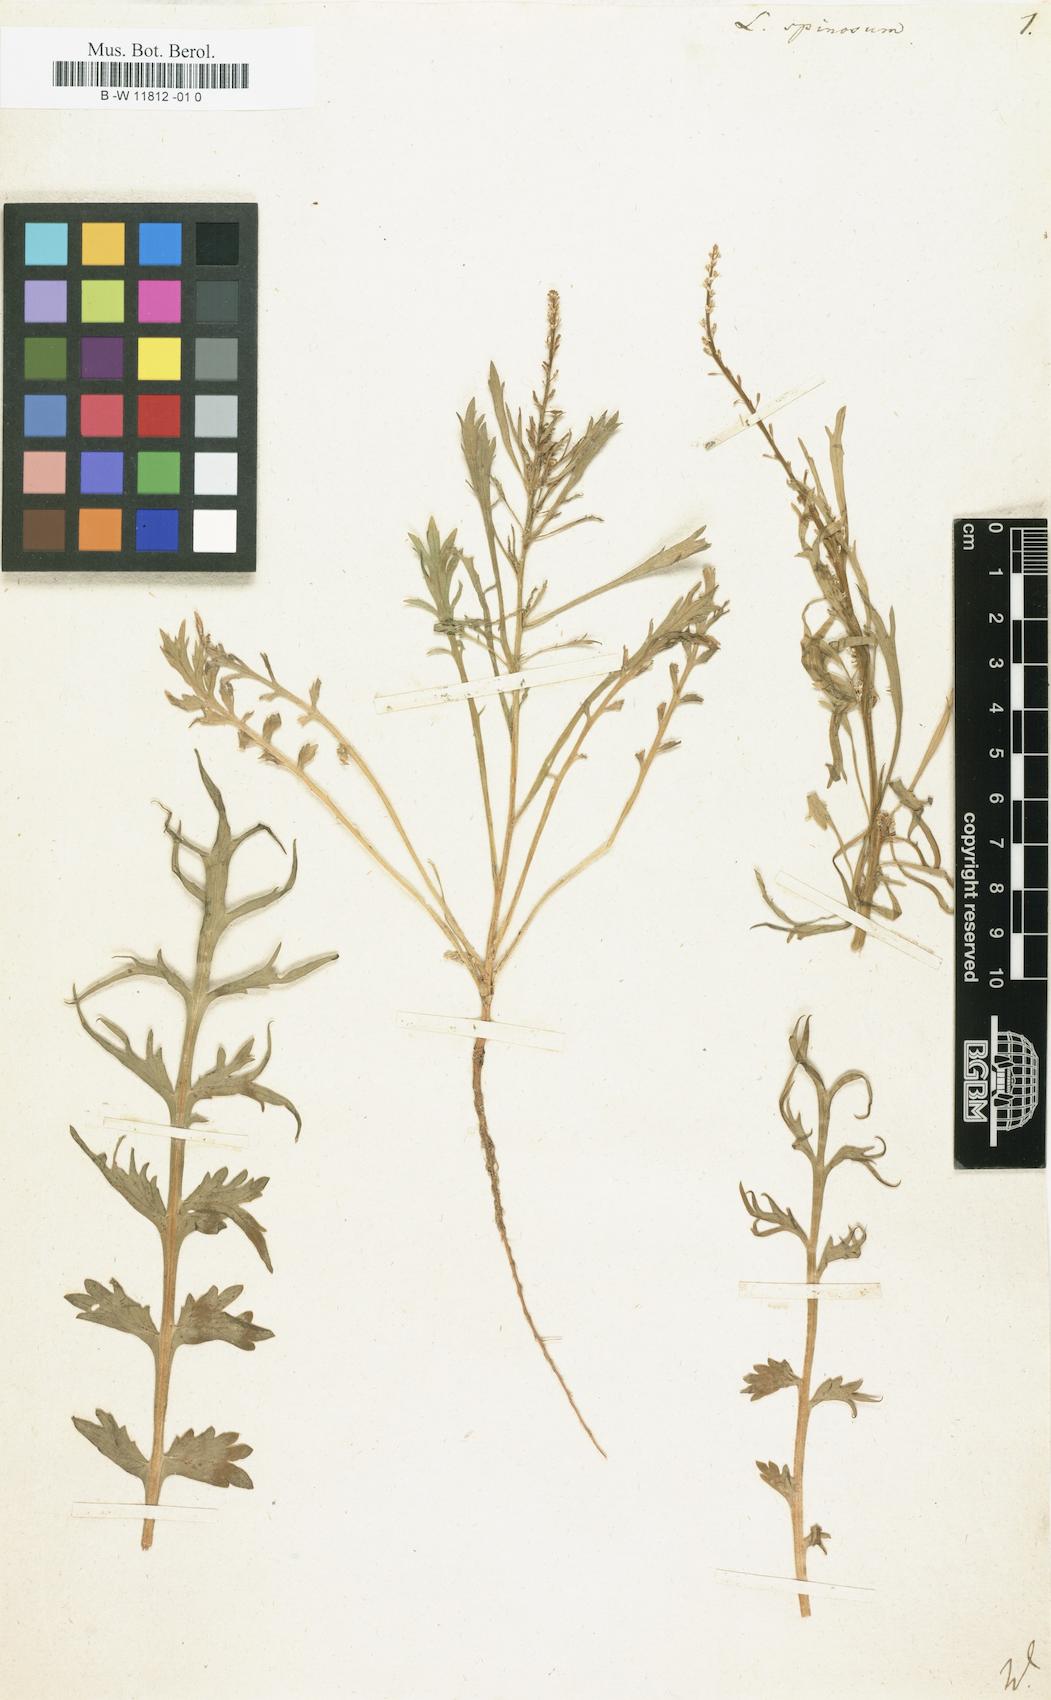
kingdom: Plantae
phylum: Tracheophyta
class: Magnoliopsida
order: Brassicales
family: Brassicaceae
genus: Lepidium
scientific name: Lepidium spinosum
